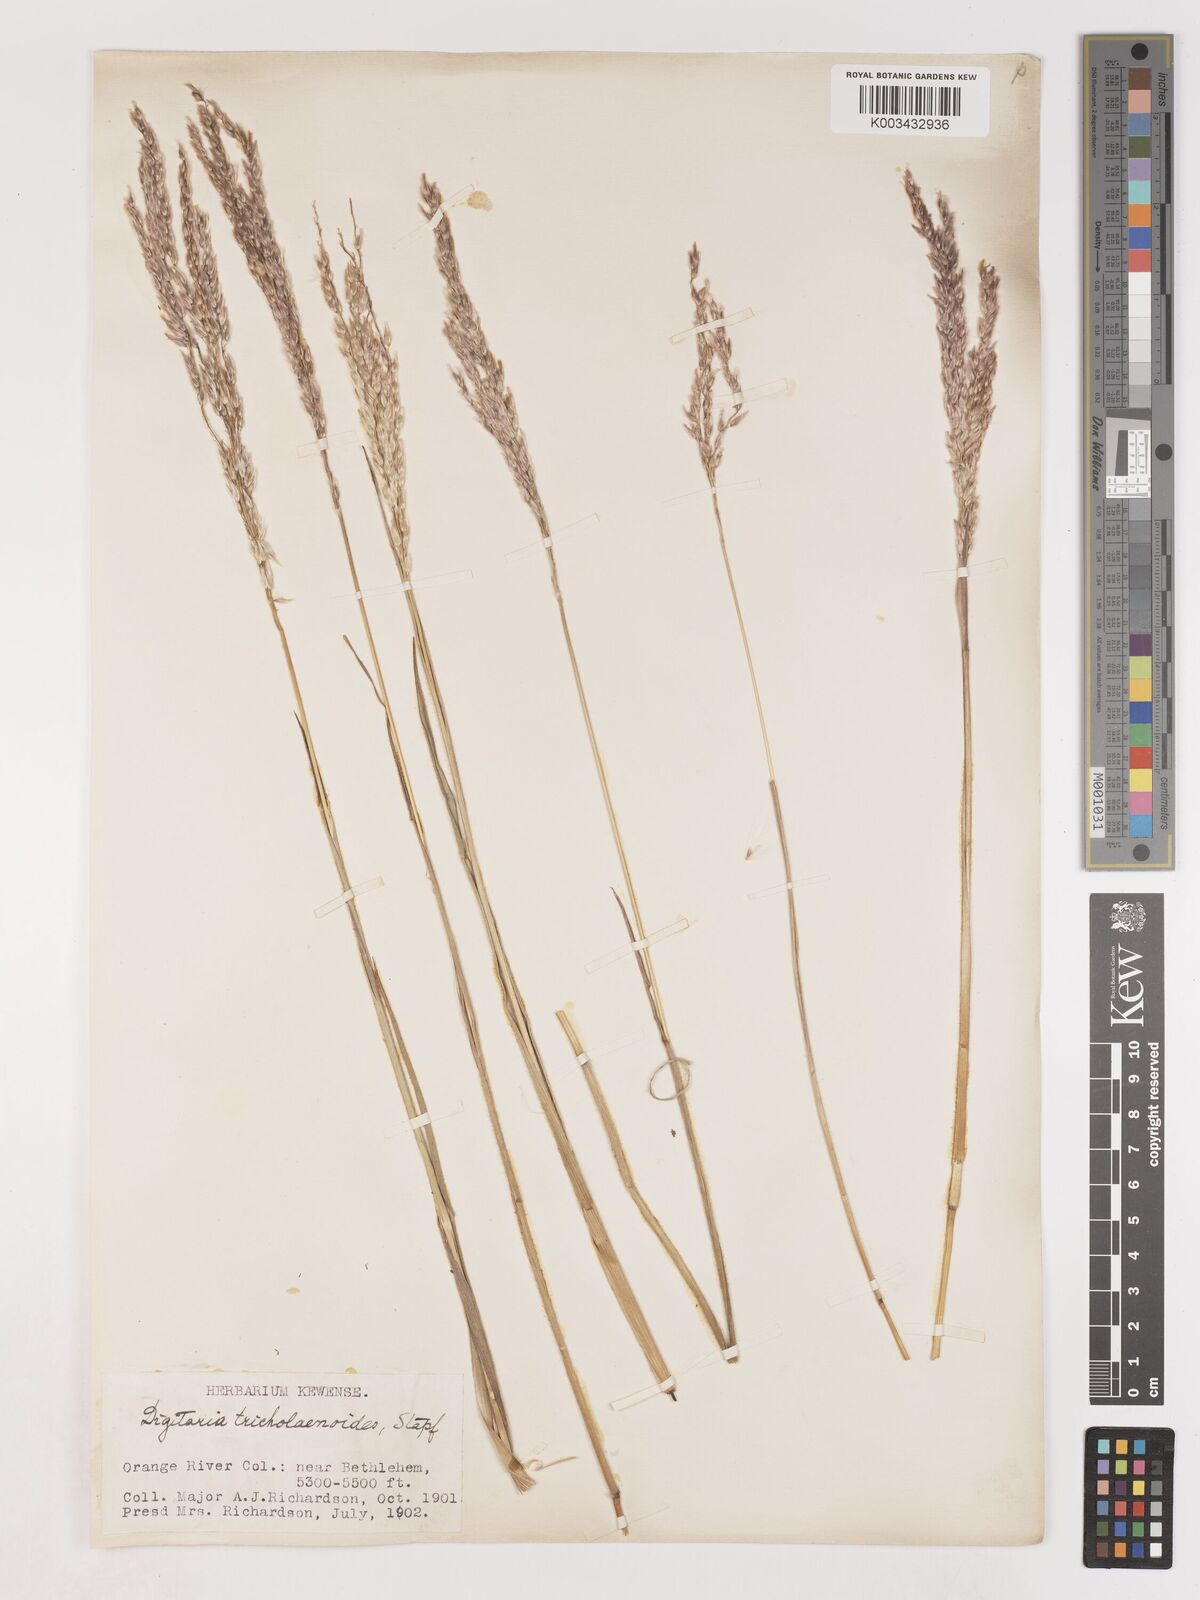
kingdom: Plantae
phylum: Tracheophyta
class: Liliopsida
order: Poales
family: Poaceae
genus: Digitaria
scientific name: Digitaria tricholaenoides
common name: Purple finger grass
